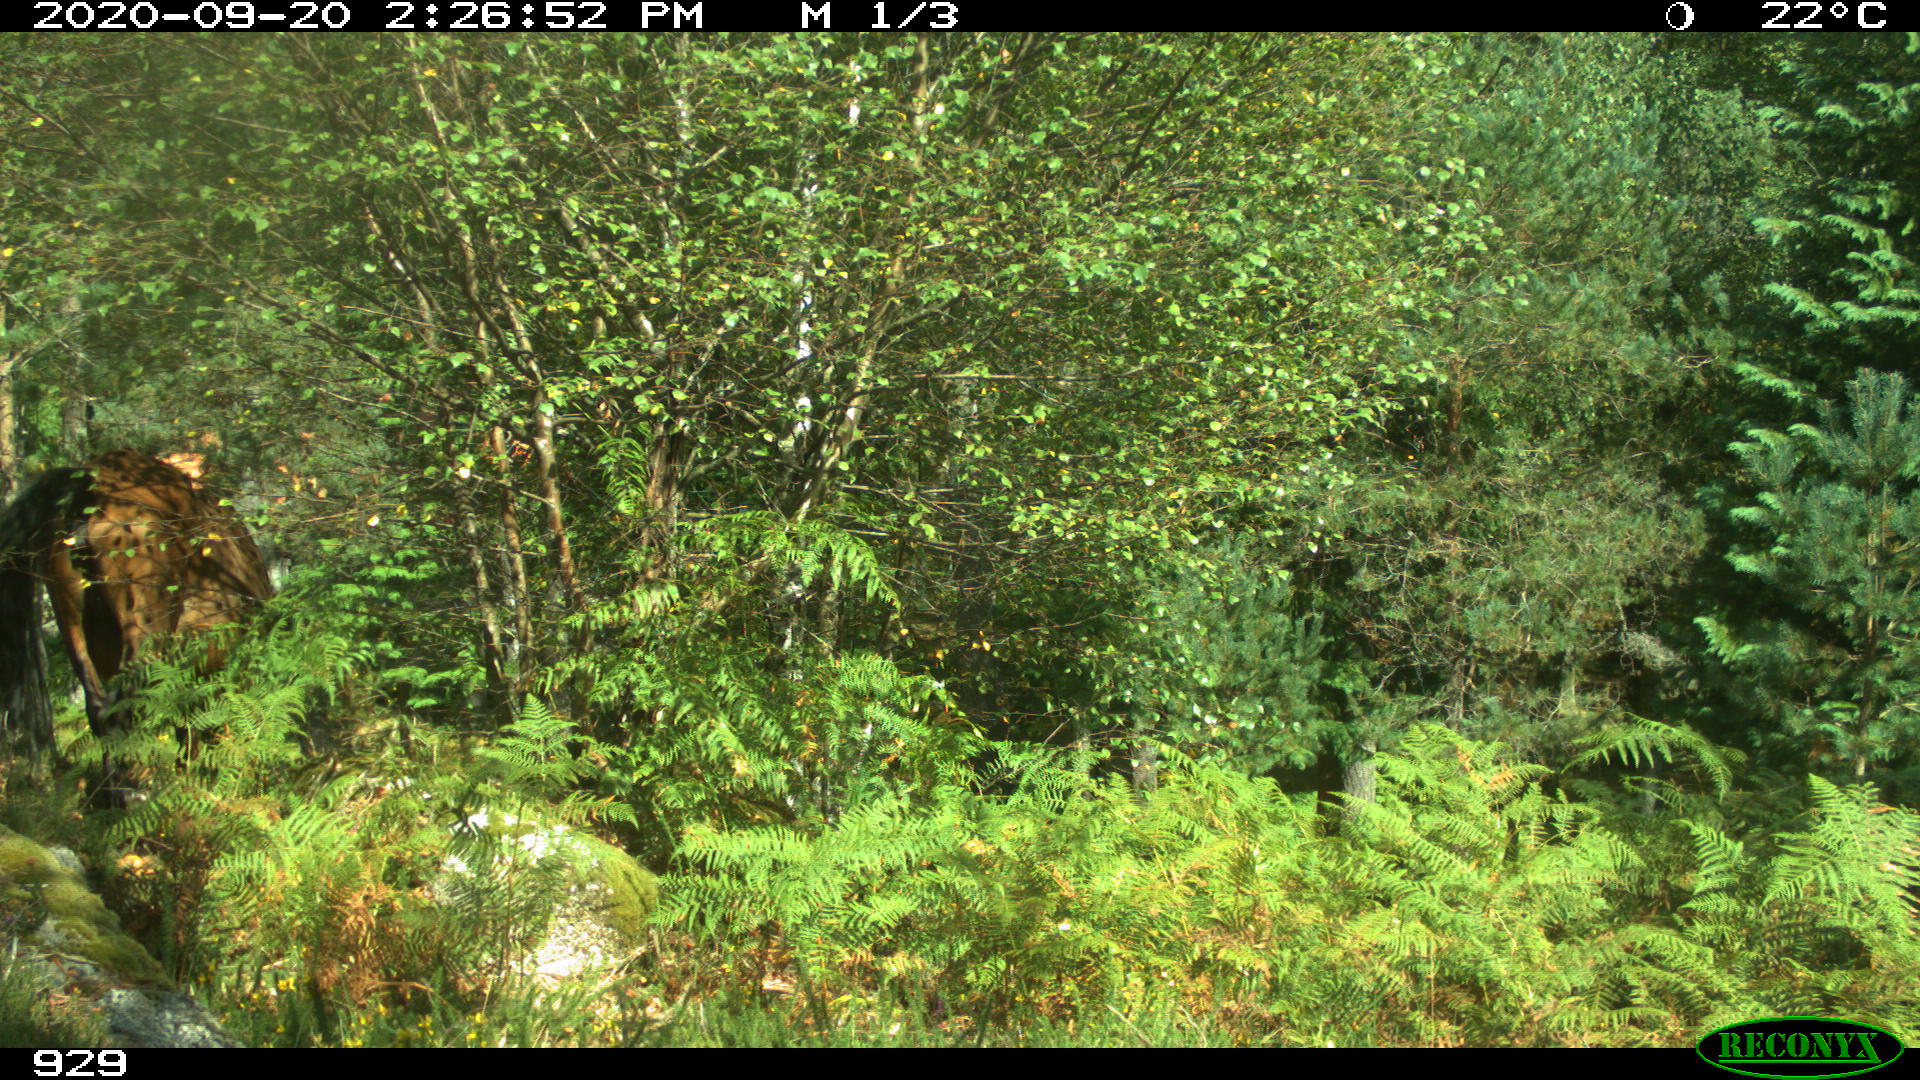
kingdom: Animalia
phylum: Chordata
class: Mammalia
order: Perissodactyla
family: Equidae
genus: Equus
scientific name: Equus caballus
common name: Horse
